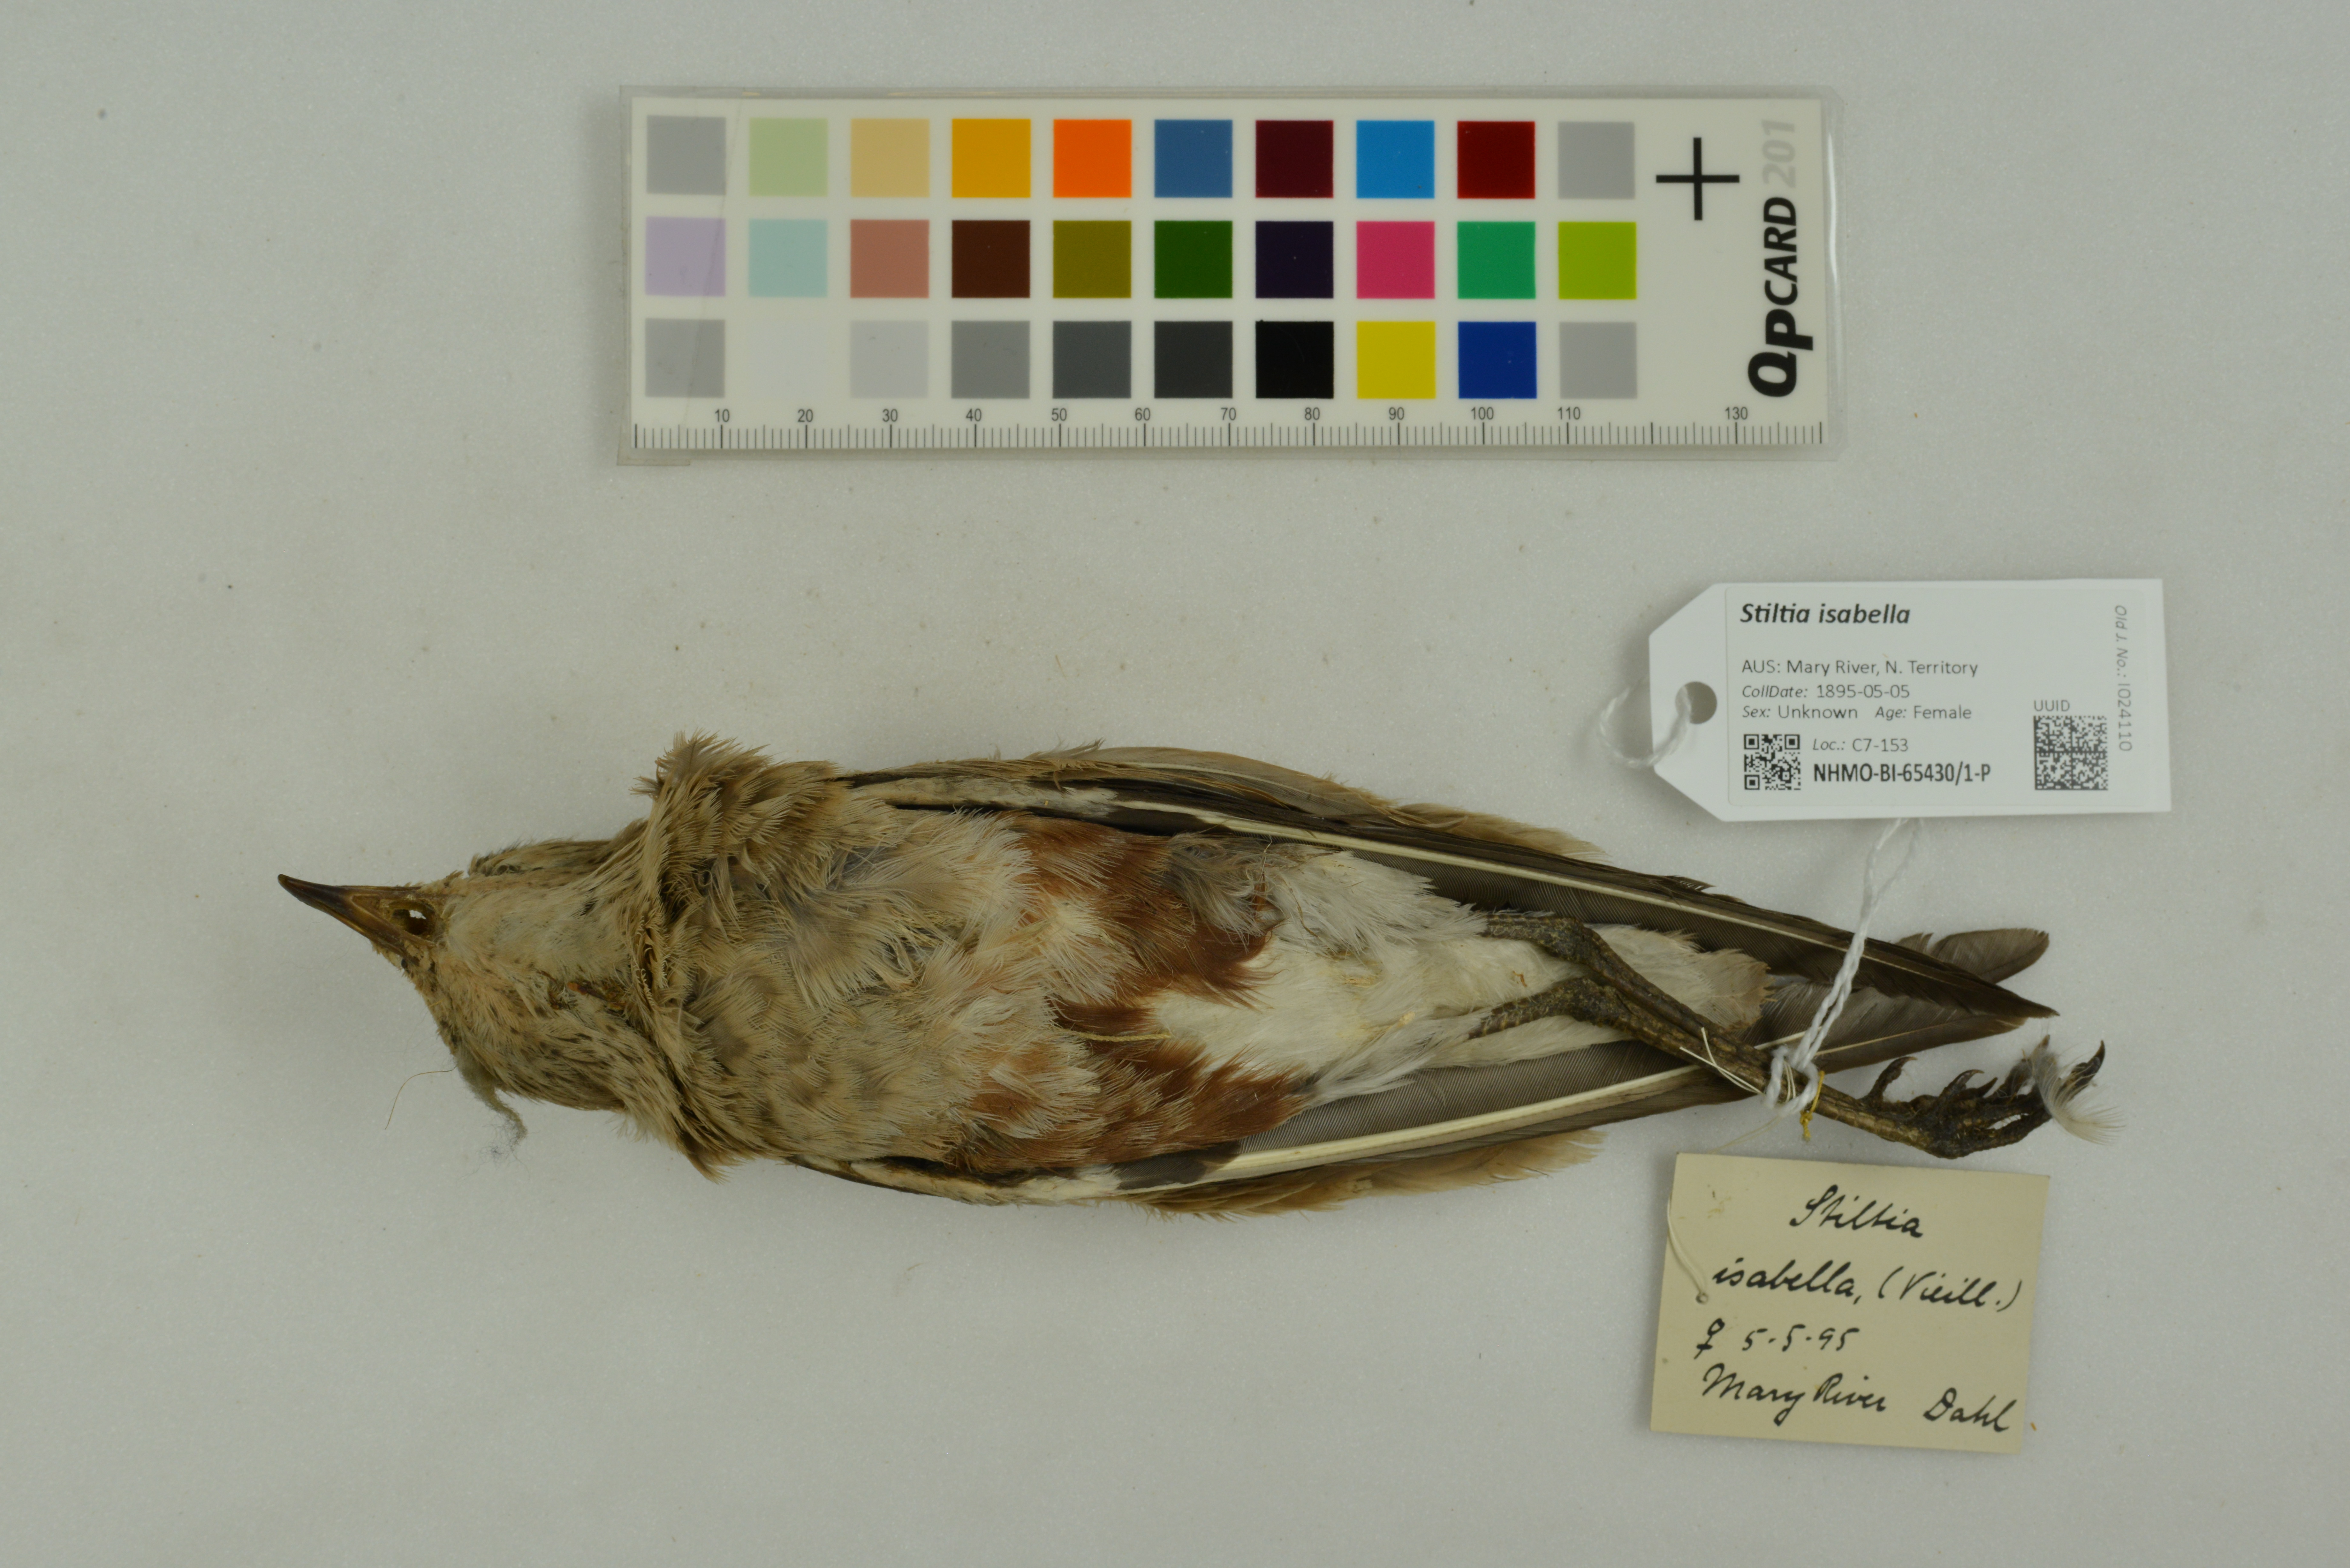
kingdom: Animalia
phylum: Chordata
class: Aves
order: Charadriiformes
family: Glareolidae
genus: Stiltia
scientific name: Stiltia isabella
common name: Australian pratincole
